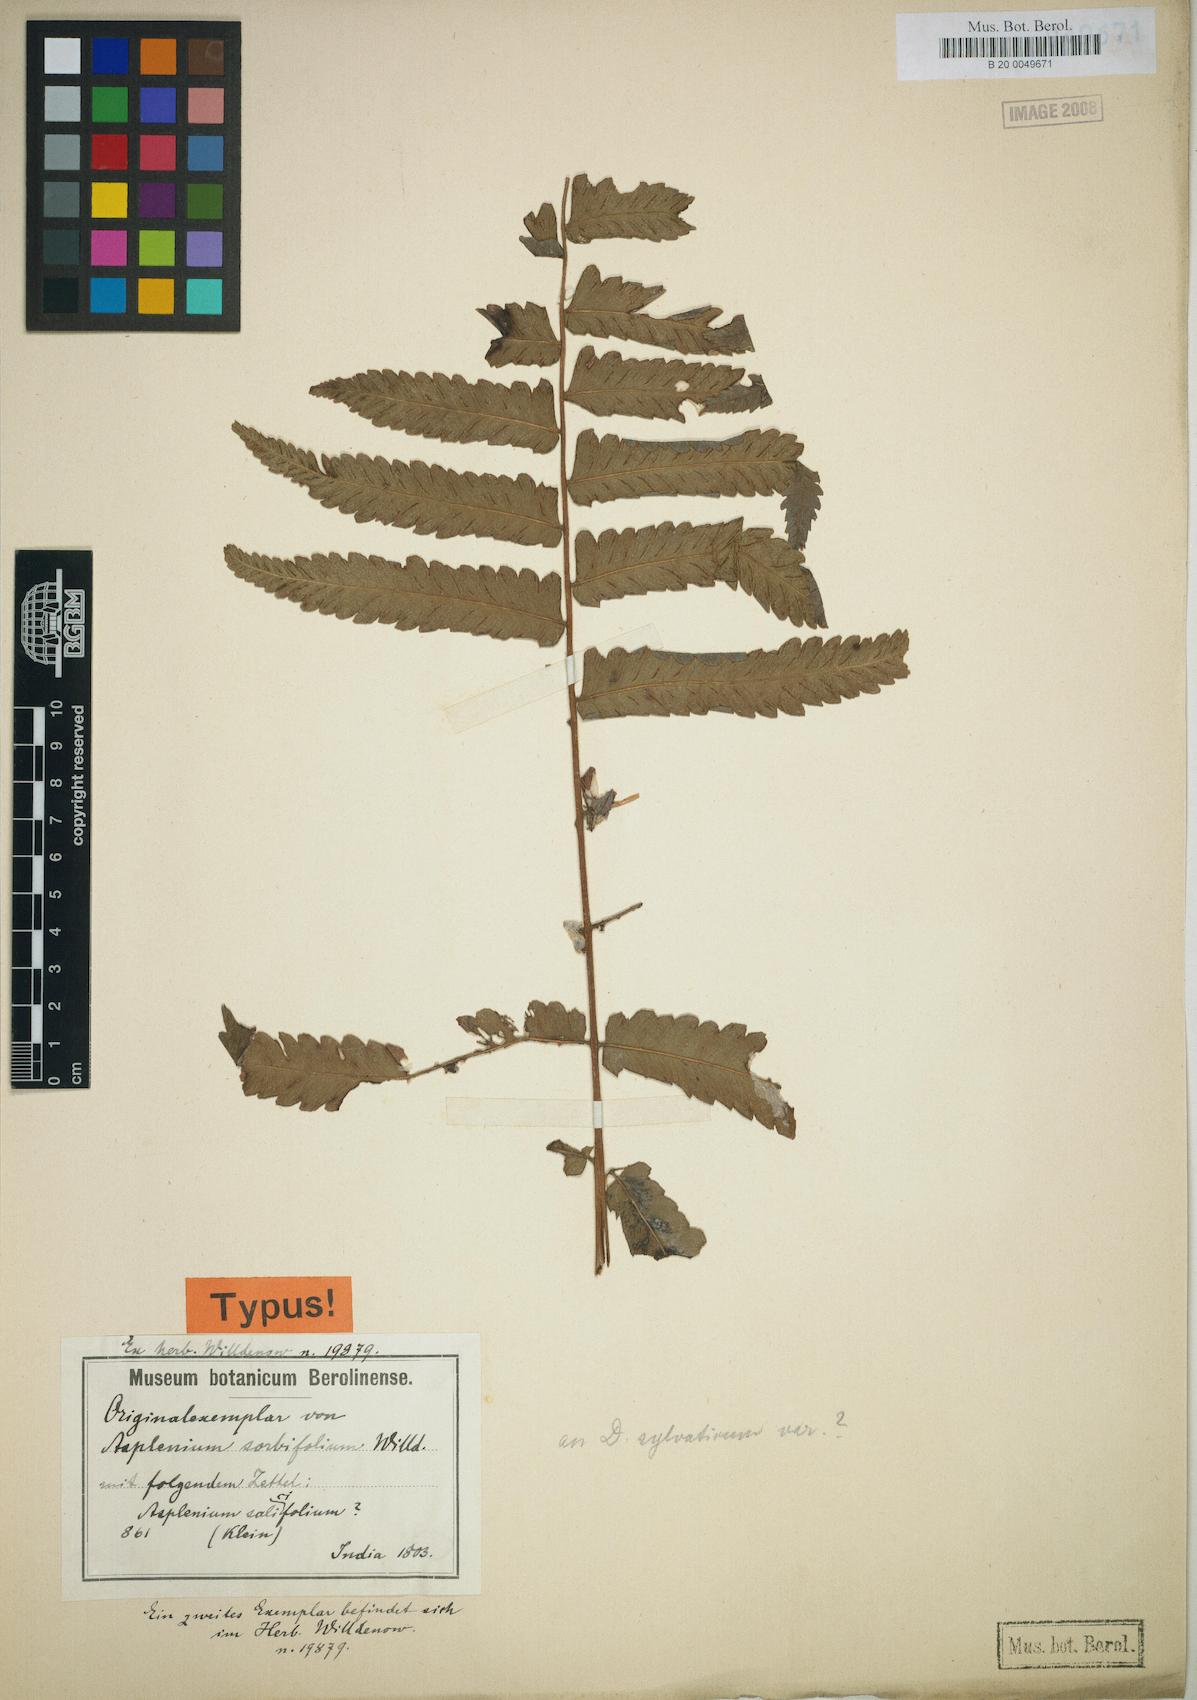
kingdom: Plantae
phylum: Tracheophyta
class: Polypodiopsida
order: Polypodiales
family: Athyriaceae
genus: Diplazium
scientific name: Diplazium sylvaticum
